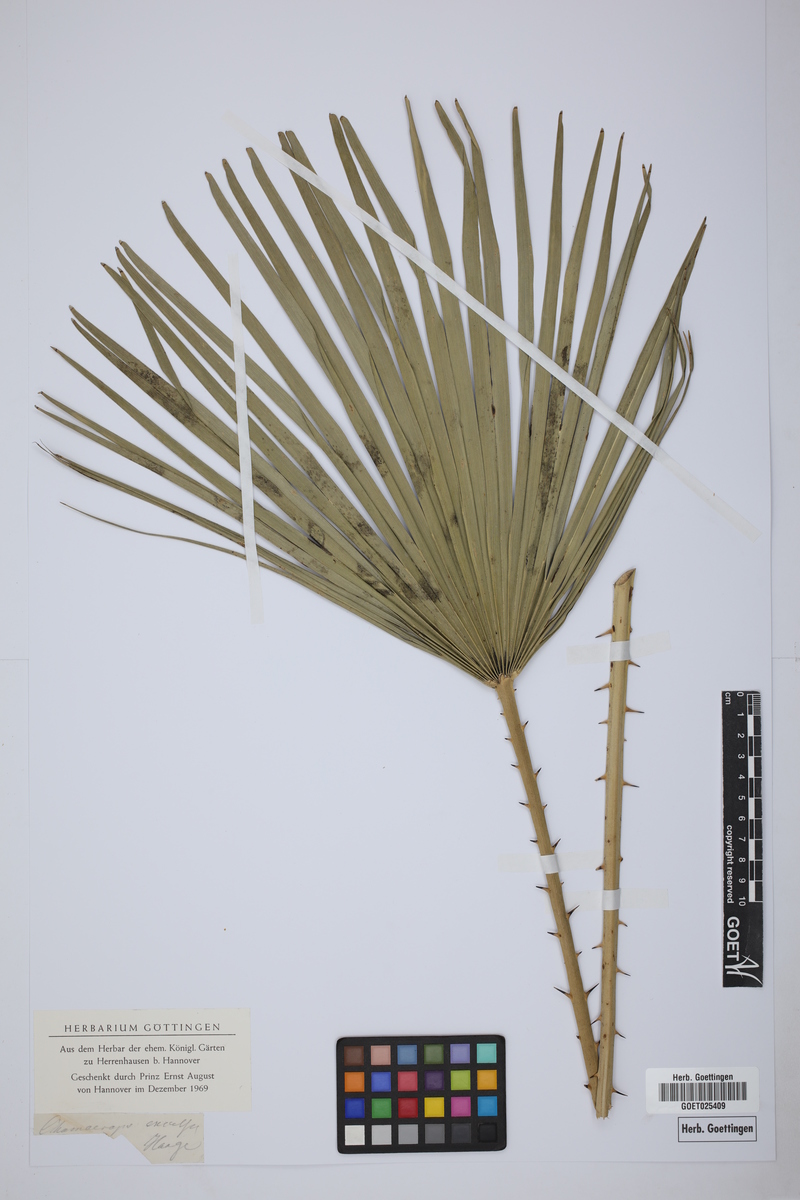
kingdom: Plantae
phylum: Tracheophyta
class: Liliopsida
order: Arecales
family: Arecaceae
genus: Rhapis
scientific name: Rhapis excelsa
